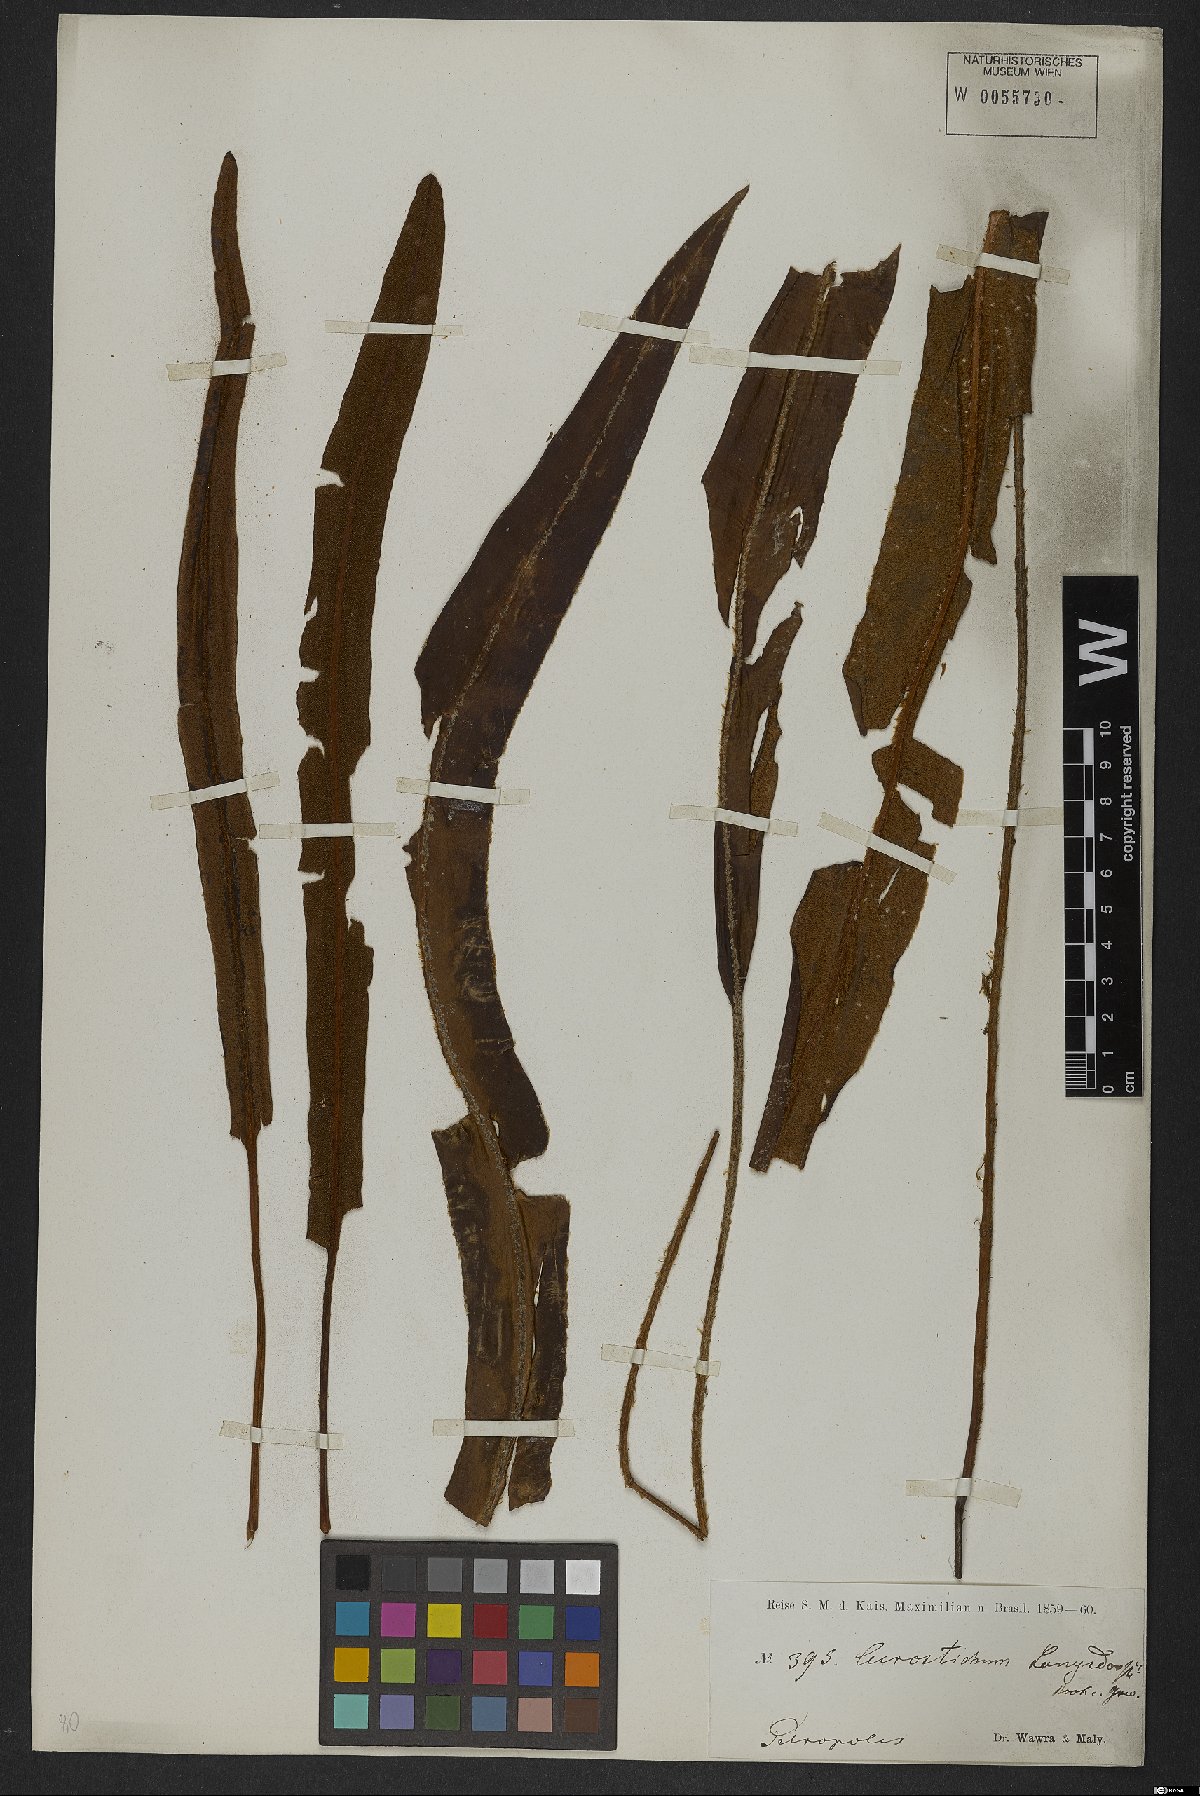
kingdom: Plantae
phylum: Tracheophyta
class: Polypodiopsida
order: Polypodiales
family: Dryopteridaceae
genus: Elaphoglossum
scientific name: Elaphoglossum langsdorffii
